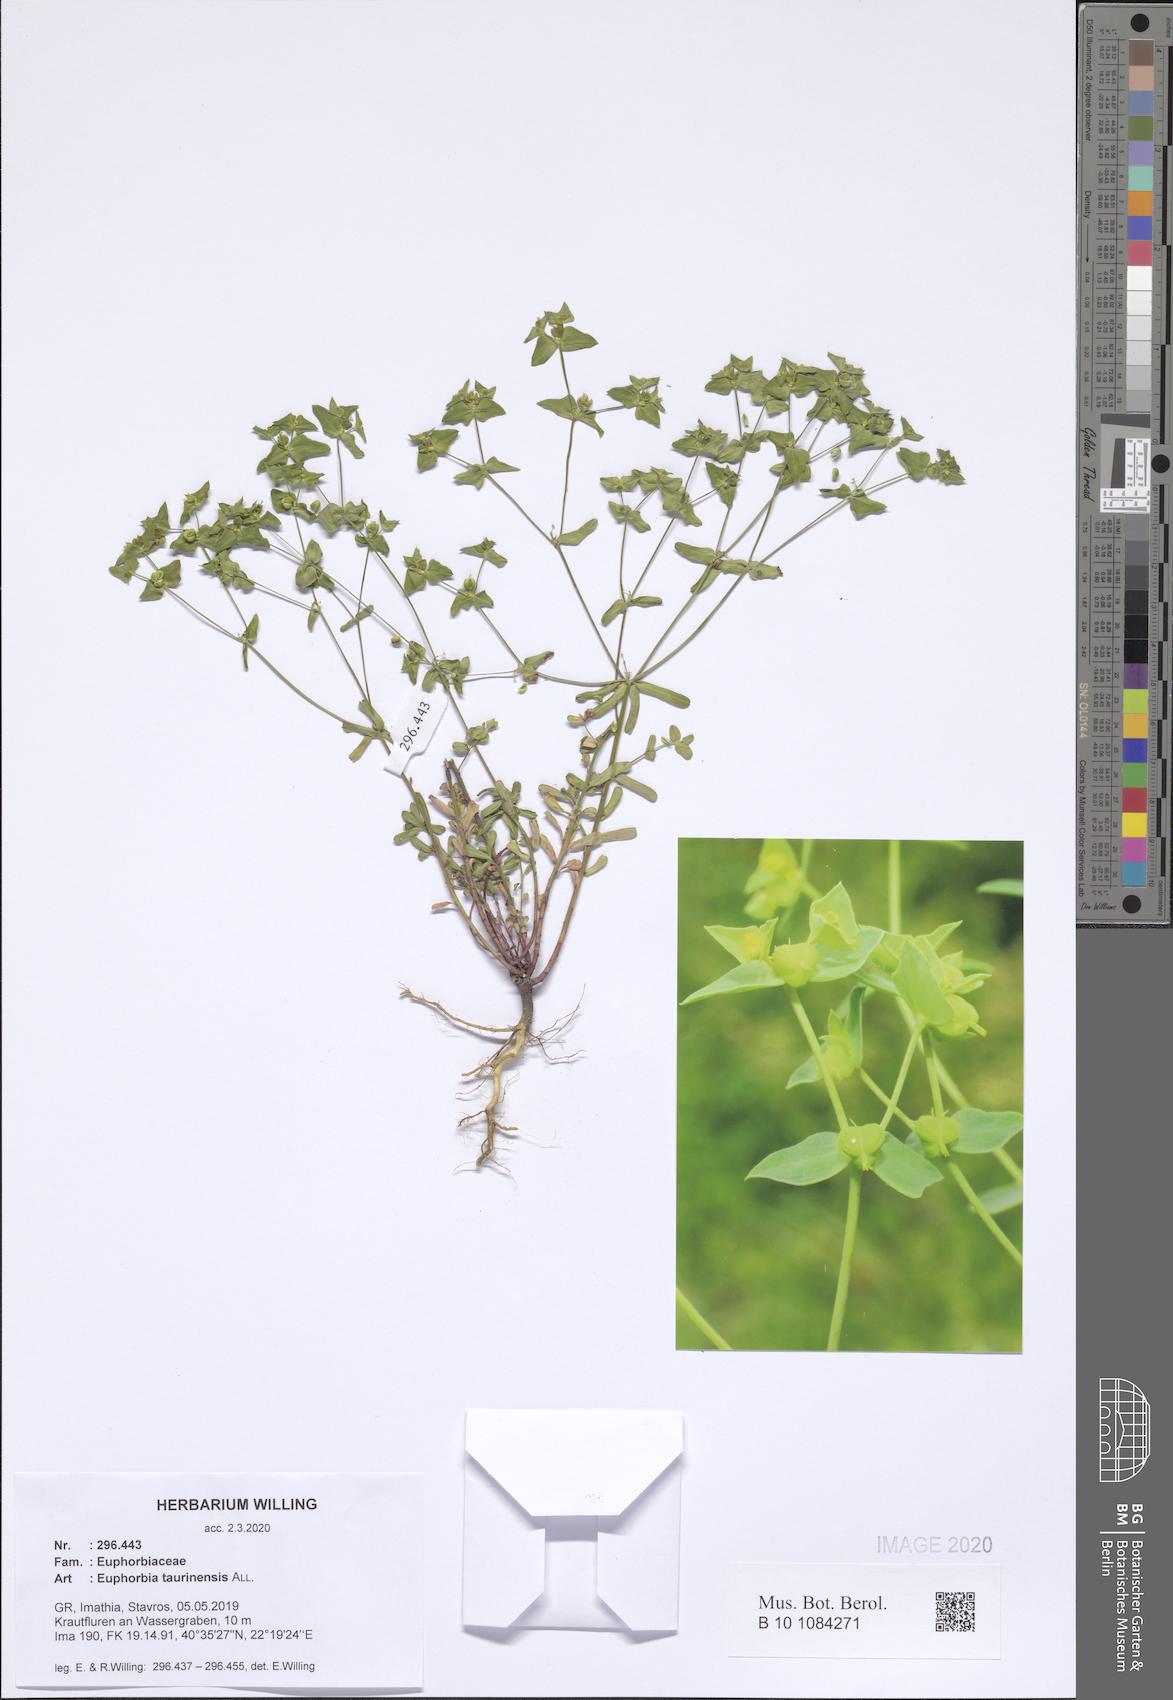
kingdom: Plantae
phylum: Tracheophyta
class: Magnoliopsida
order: Malpighiales
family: Euphorbiaceae
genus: Euphorbia
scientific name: Euphorbia taurinensis
